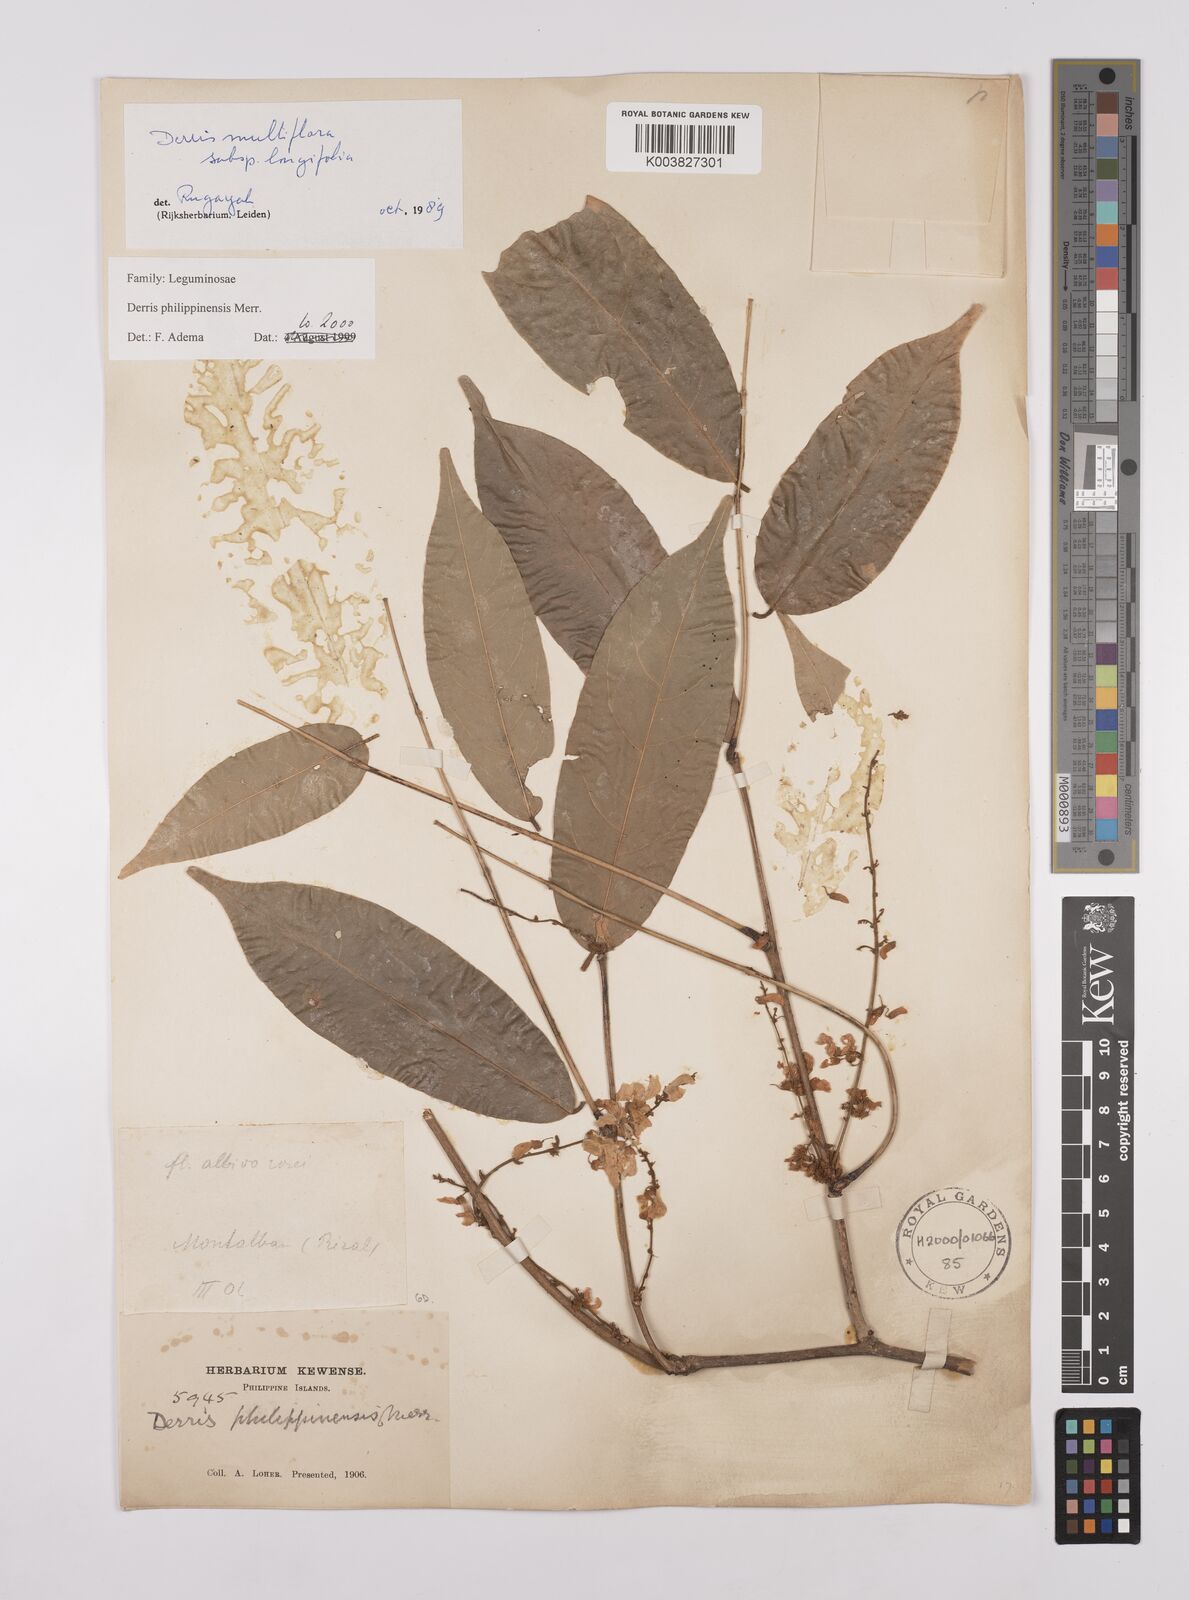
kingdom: Plantae
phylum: Tracheophyta
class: Magnoliopsida
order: Fabales
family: Fabaceae
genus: Brachypterum
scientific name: Brachypterum philippinense
